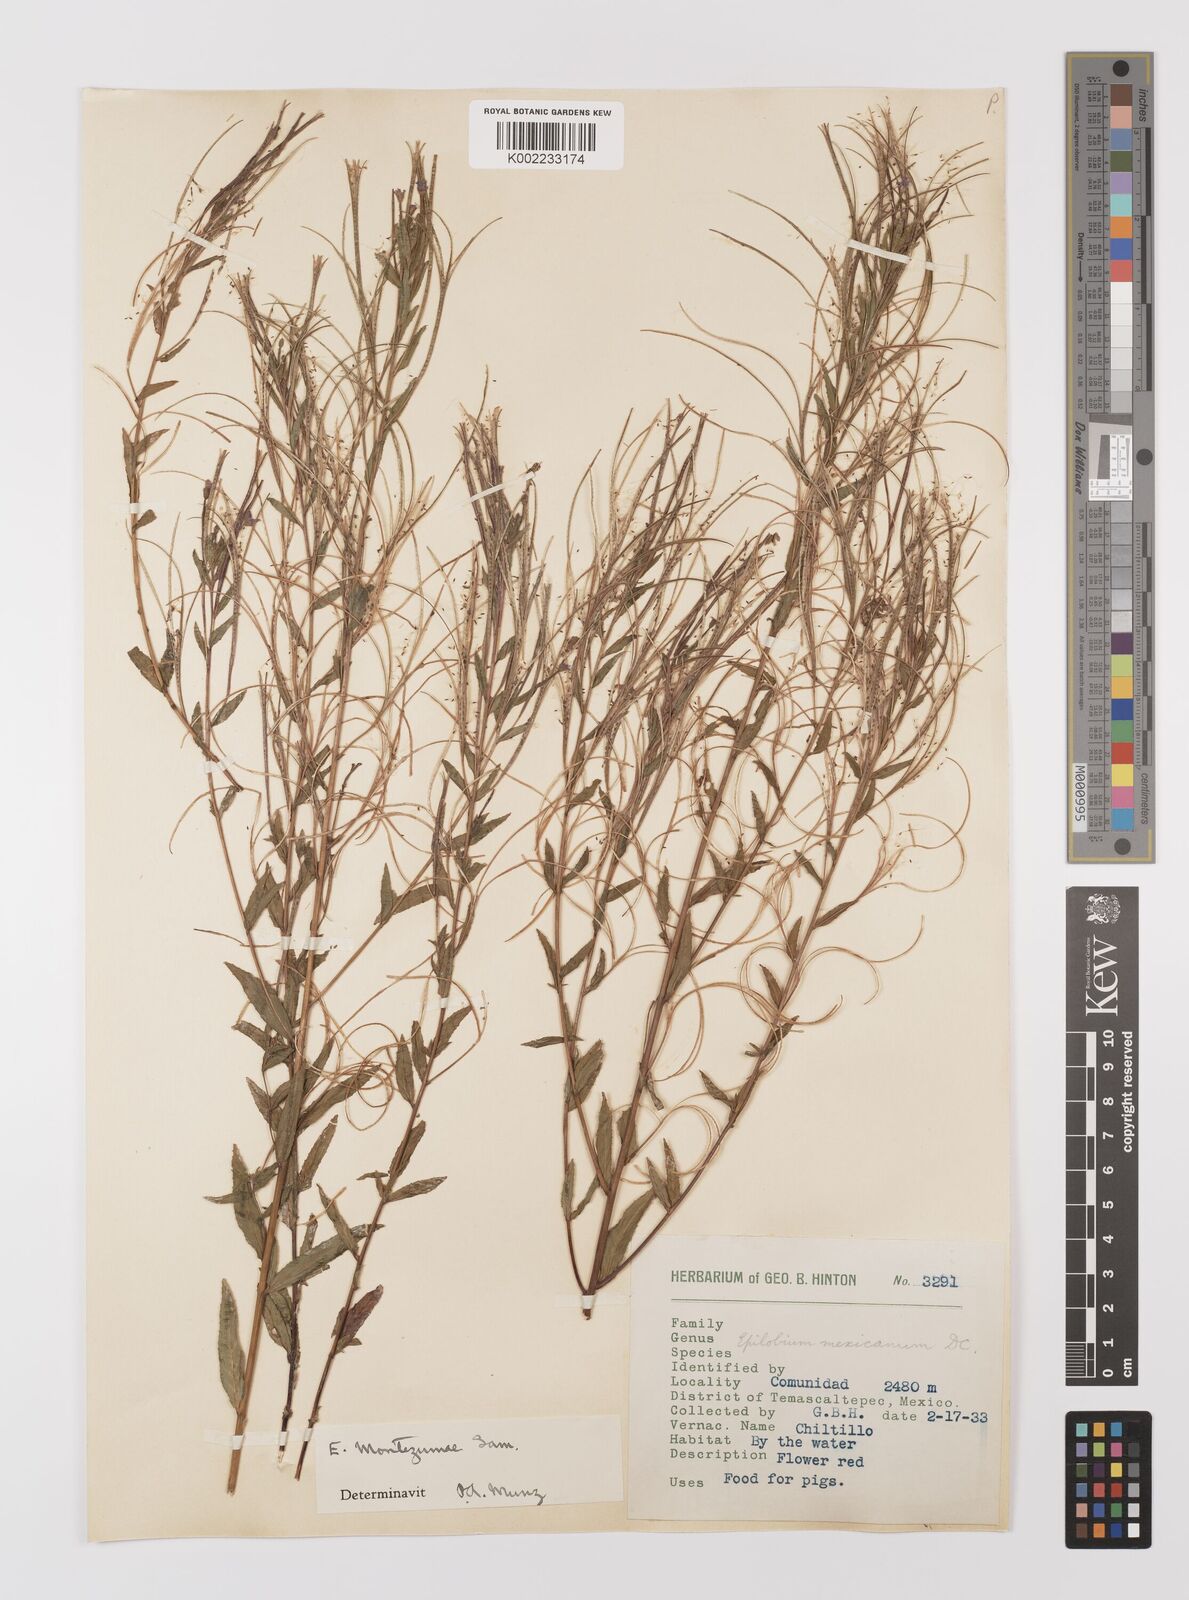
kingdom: Plantae
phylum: Tracheophyta
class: Magnoliopsida
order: Myrtales
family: Onagraceae
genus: Epilobium
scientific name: Epilobium
